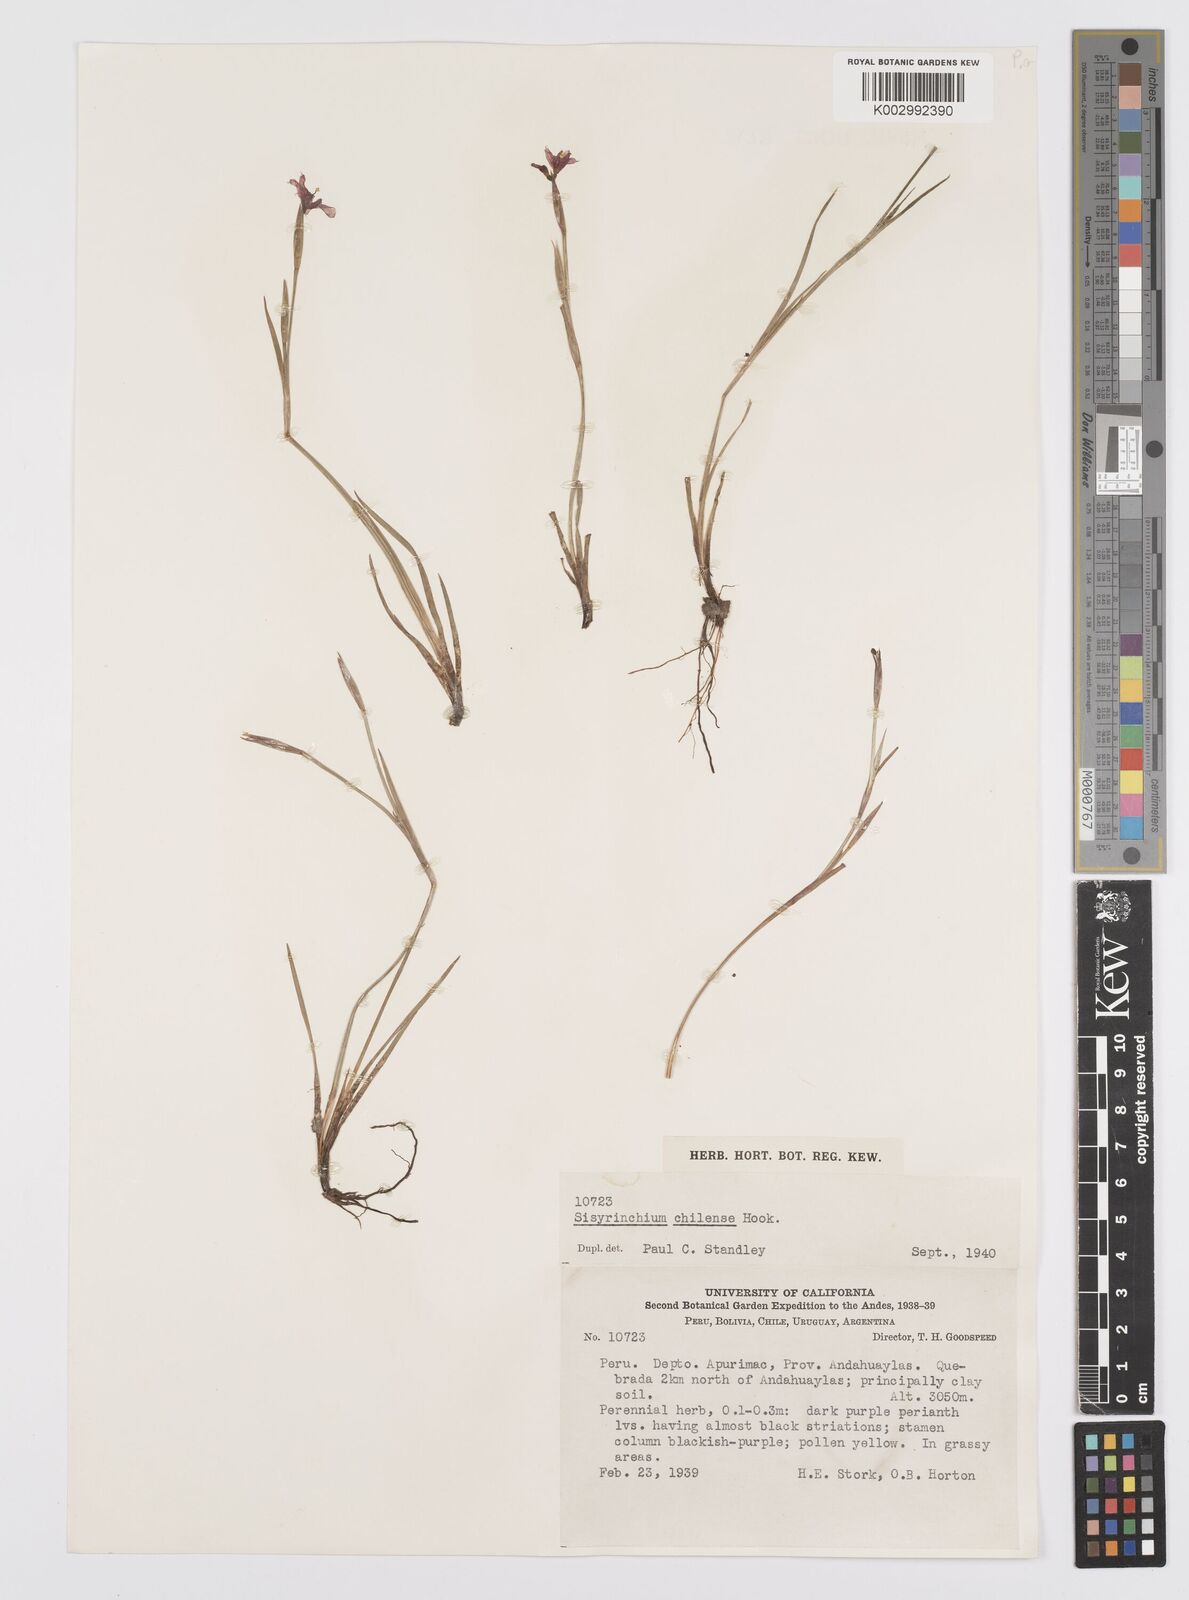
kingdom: Plantae
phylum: Tracheophyta
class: Liliopsida
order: Asparagales
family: Iridaceae
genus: Sisyrinchium
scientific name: Sisyrinchium chilense
